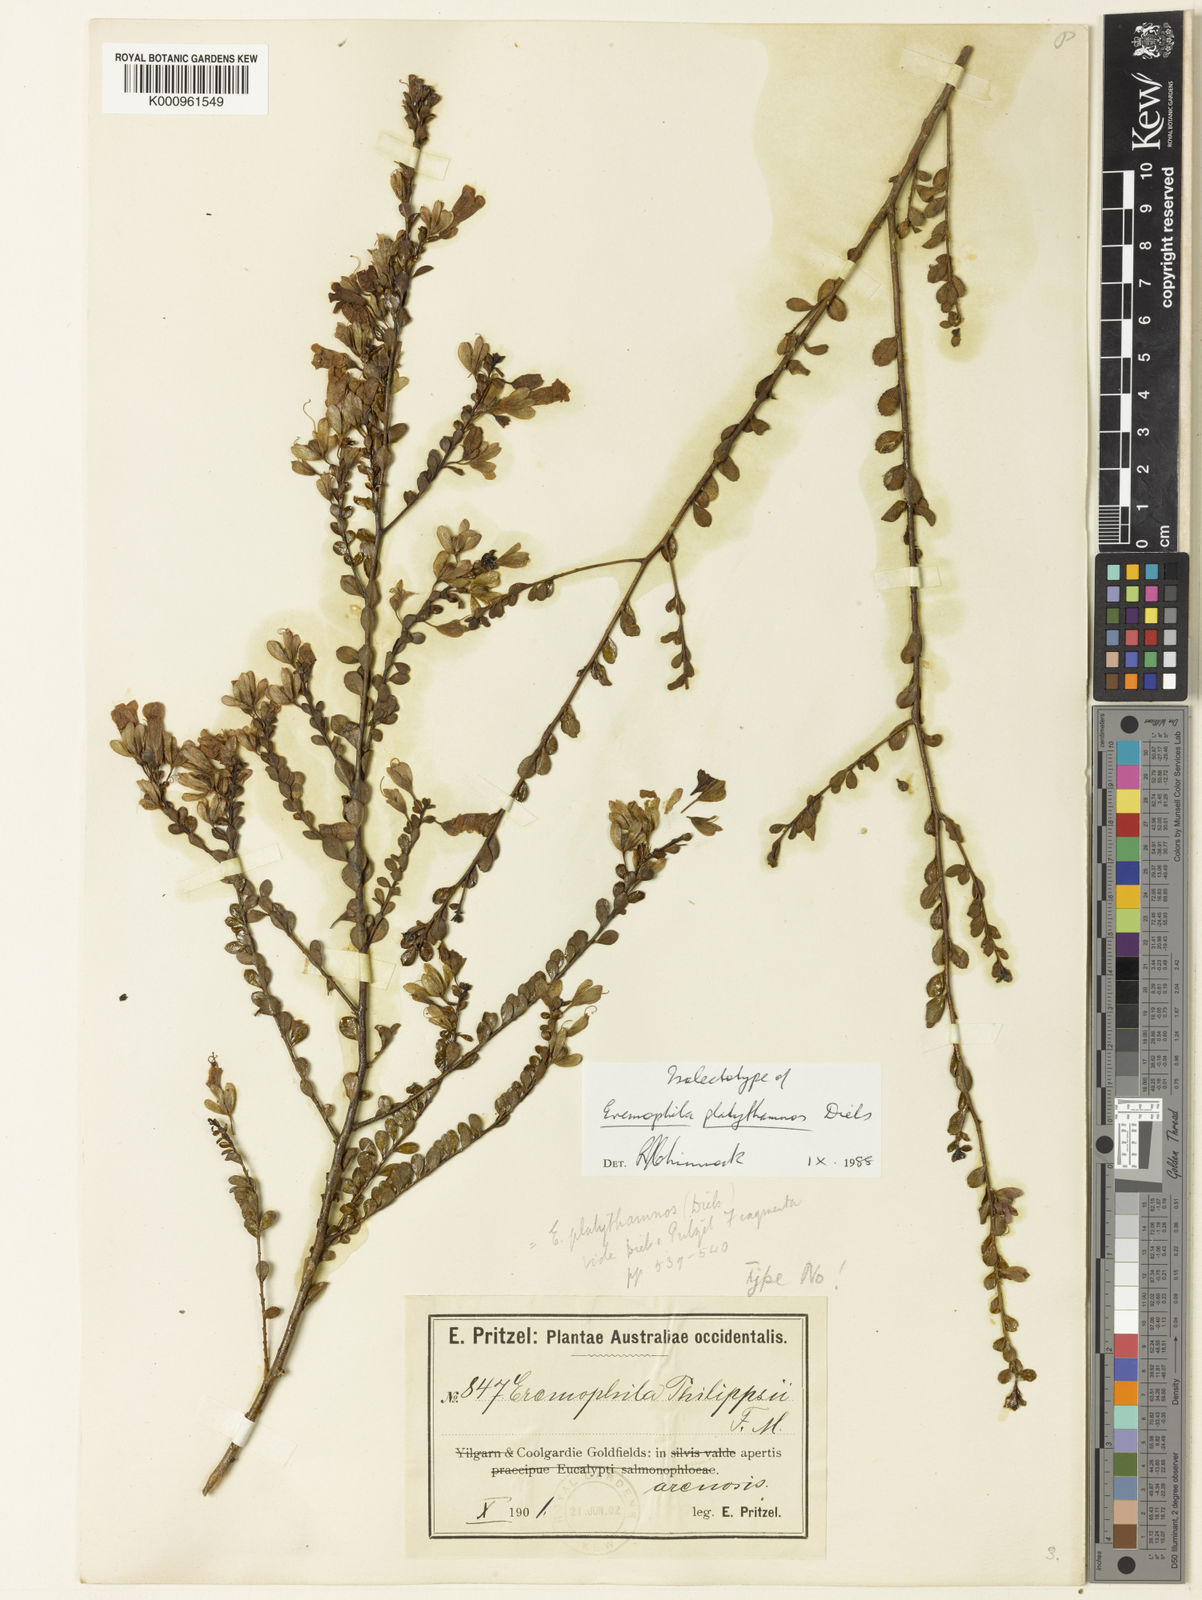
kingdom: Plantae
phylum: Tracheophyta
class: Magnoliopsida
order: Lamiales
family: Scrophulariaceae
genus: Eremophila
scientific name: Eremophila platythamnos
